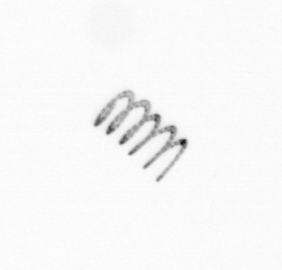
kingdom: Chromista
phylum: Ochrophyta
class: Bacillariophyceae
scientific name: Bacillariophyceae
